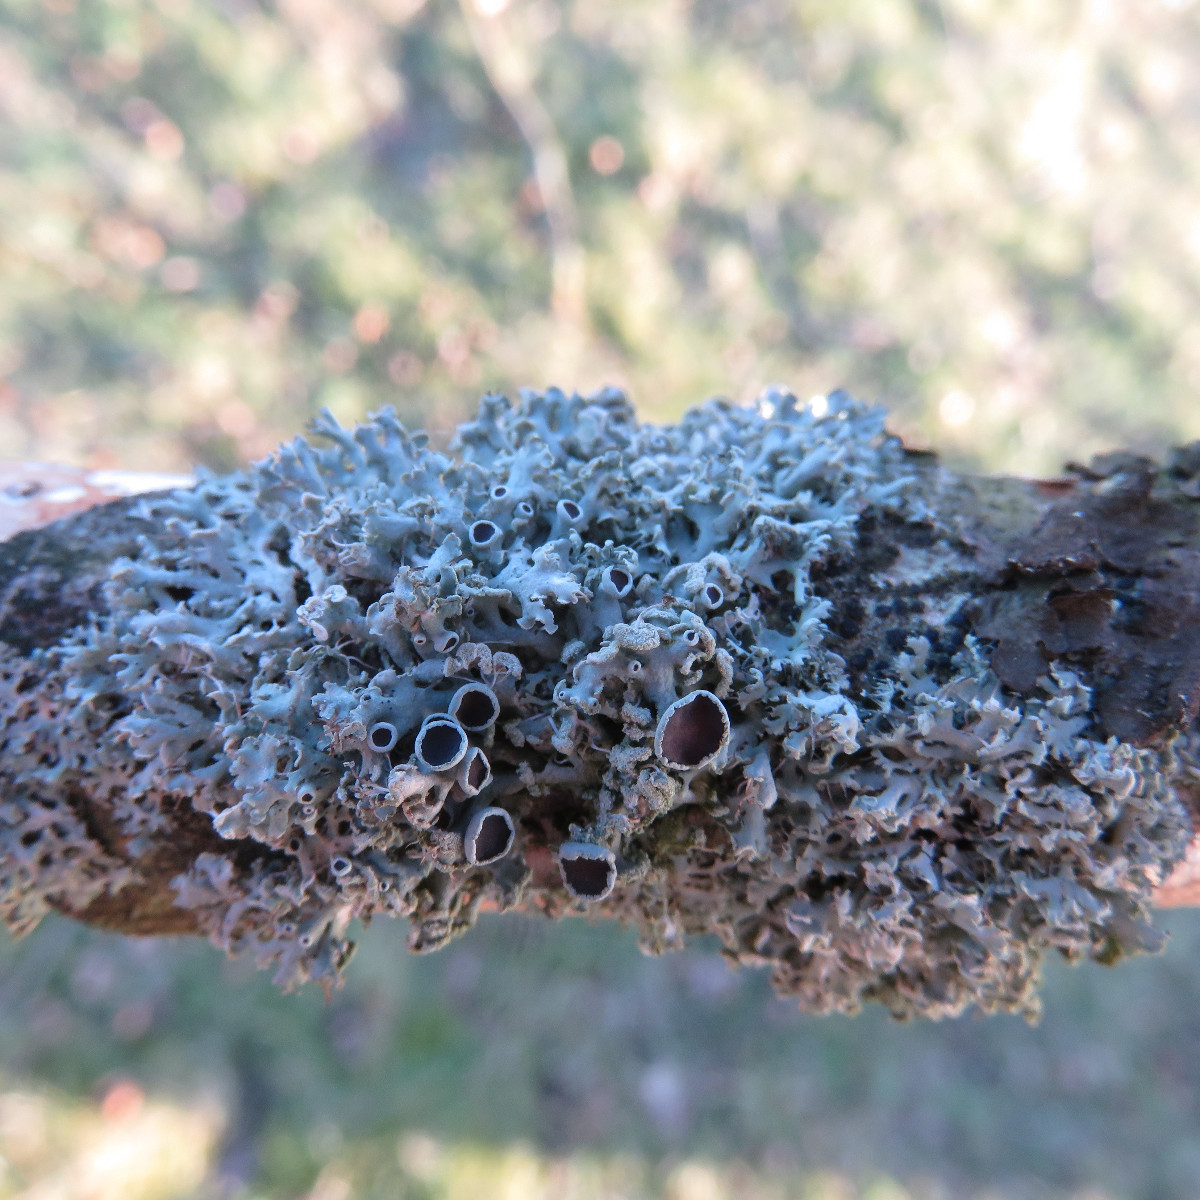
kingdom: Fungi
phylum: Ascomycota
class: Lecanoromycetes
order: Caliciales
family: Physciaceae
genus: Physcia
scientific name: Physcia tenella
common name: spæd rosetlav
